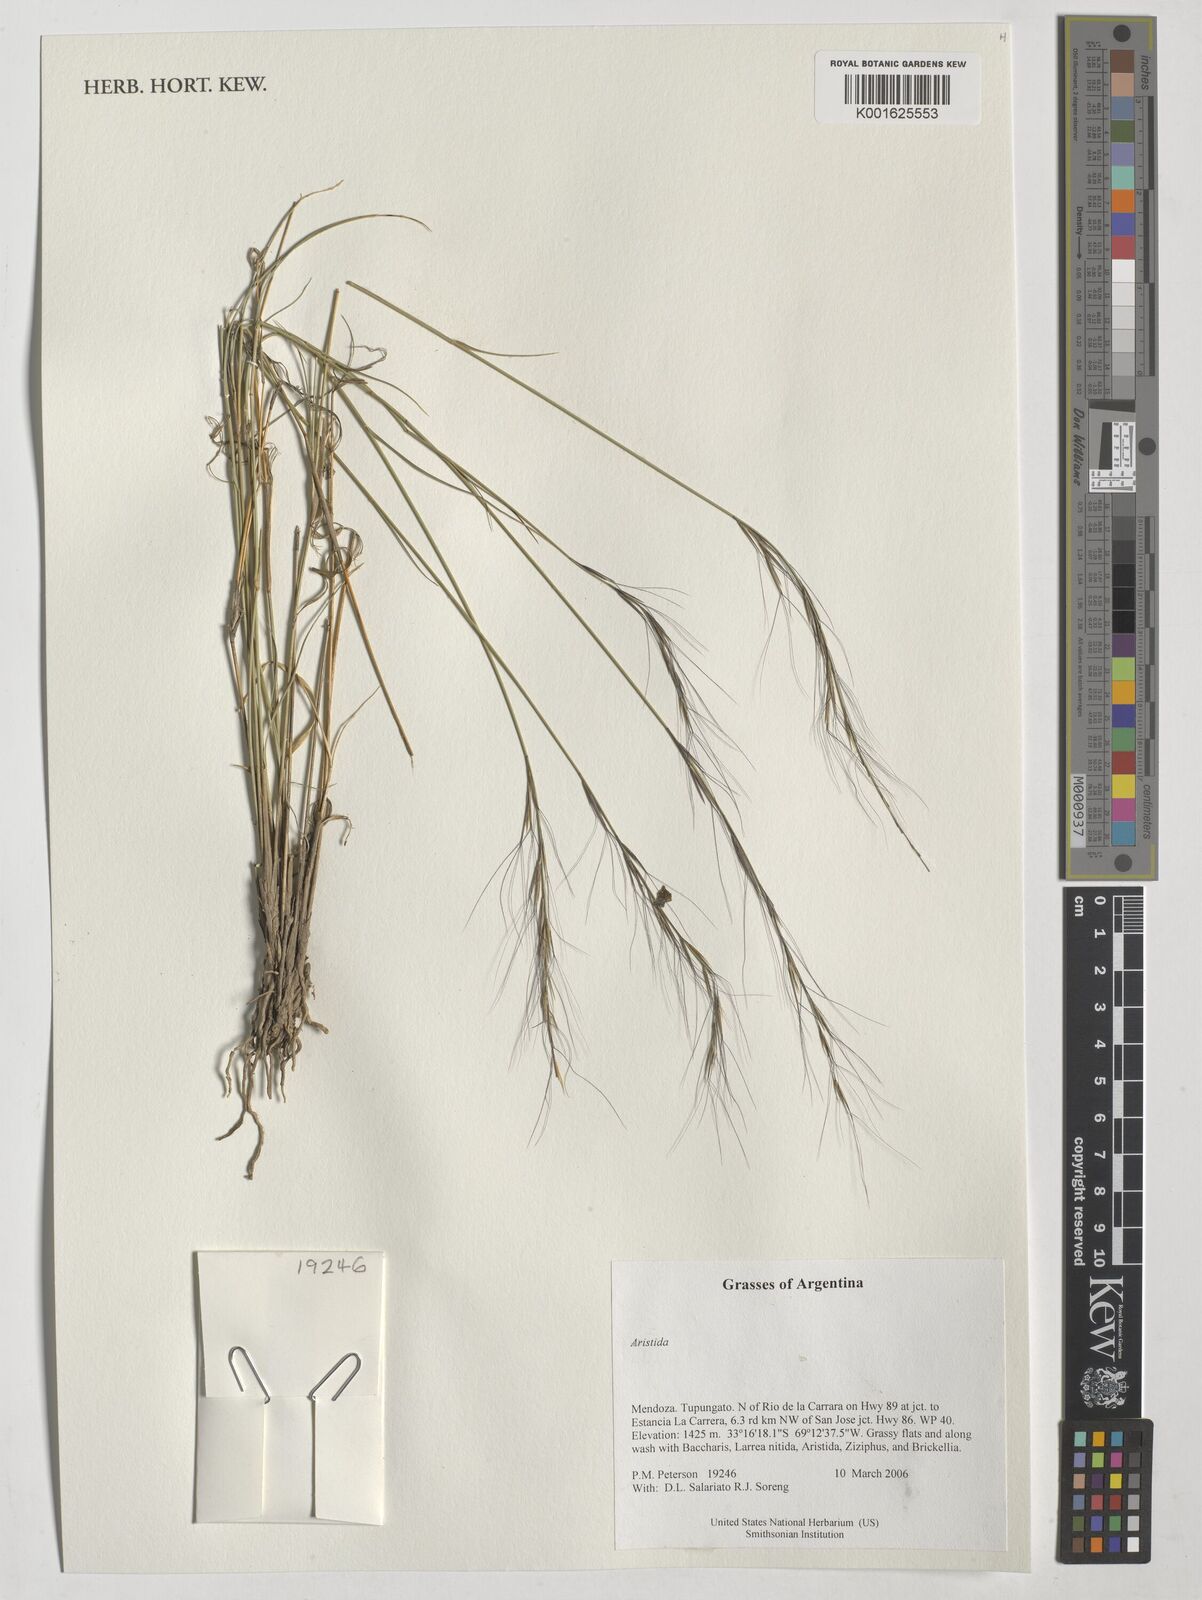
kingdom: Plantae
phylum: Tracheophyta
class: Liliopsida
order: Poales
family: Poaceae
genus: Aristida
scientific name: Aristida
